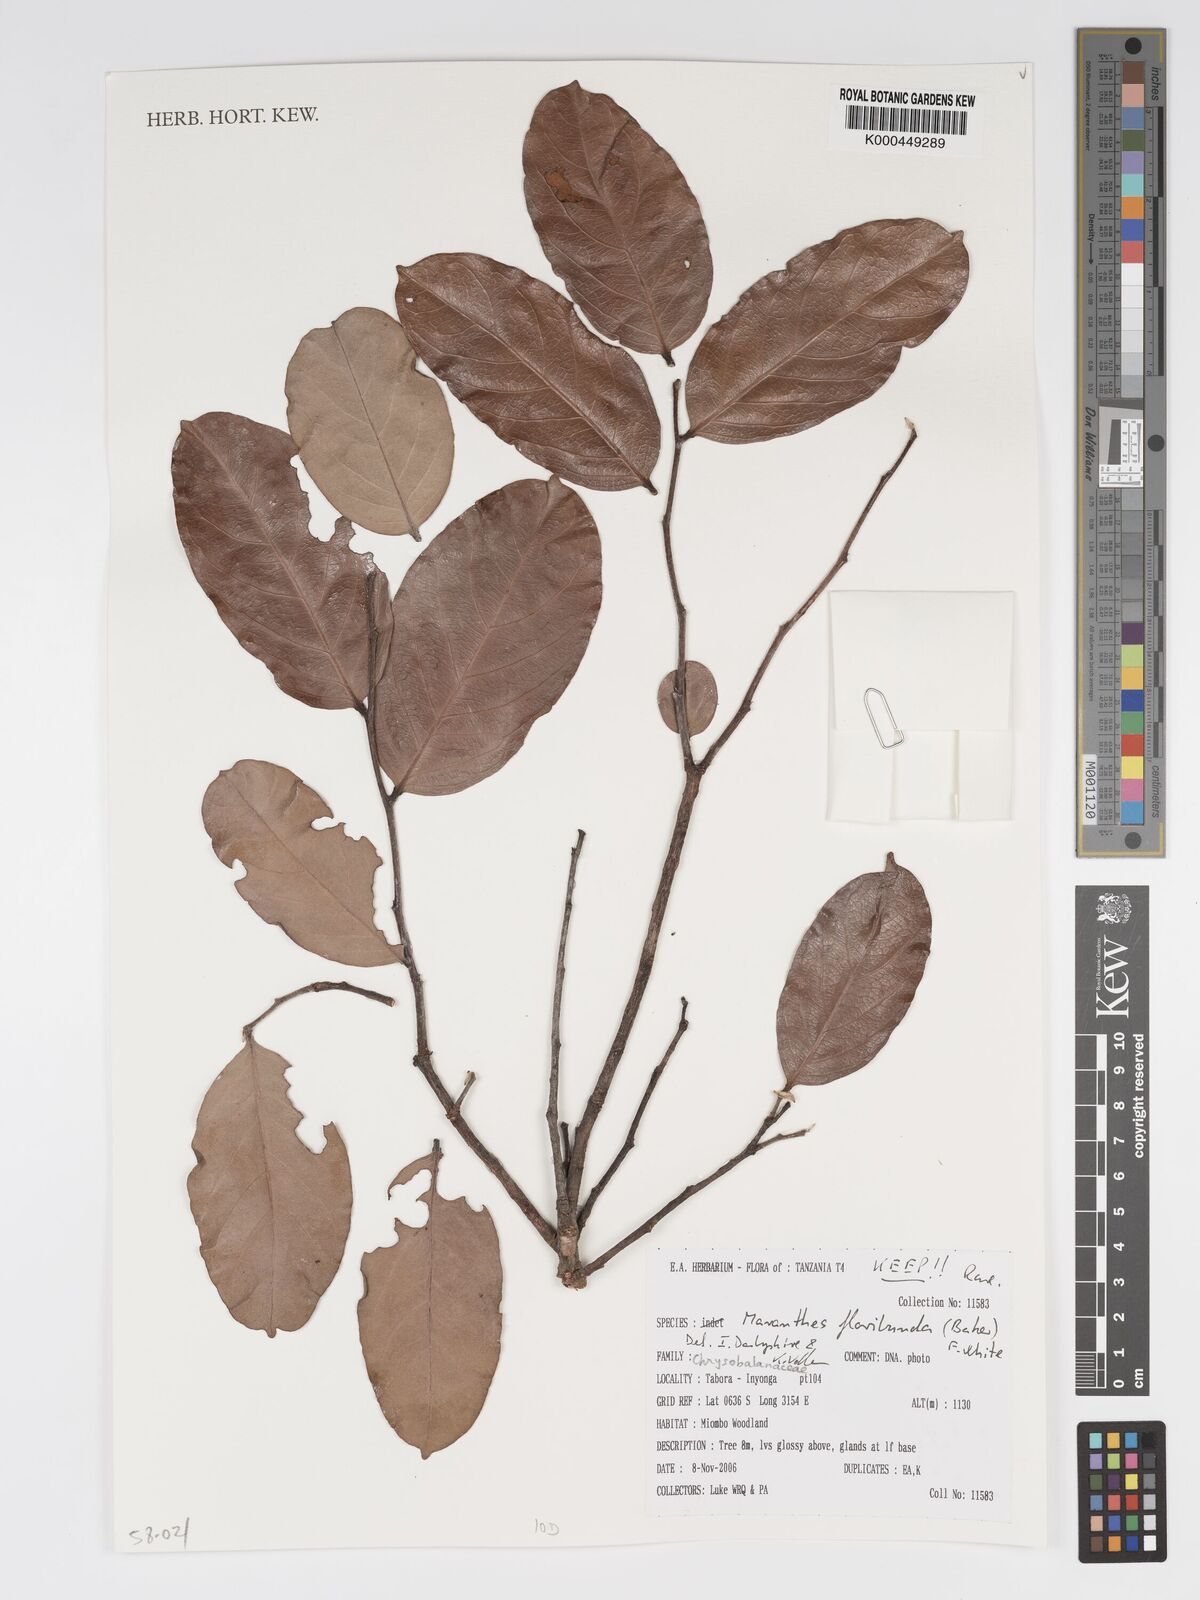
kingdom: Plantae
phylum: Tracheophyta
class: Magnoliopsida
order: Malpighiales
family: Chrysobalanaceae
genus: Maranthes
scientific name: Maranthes floribunda
